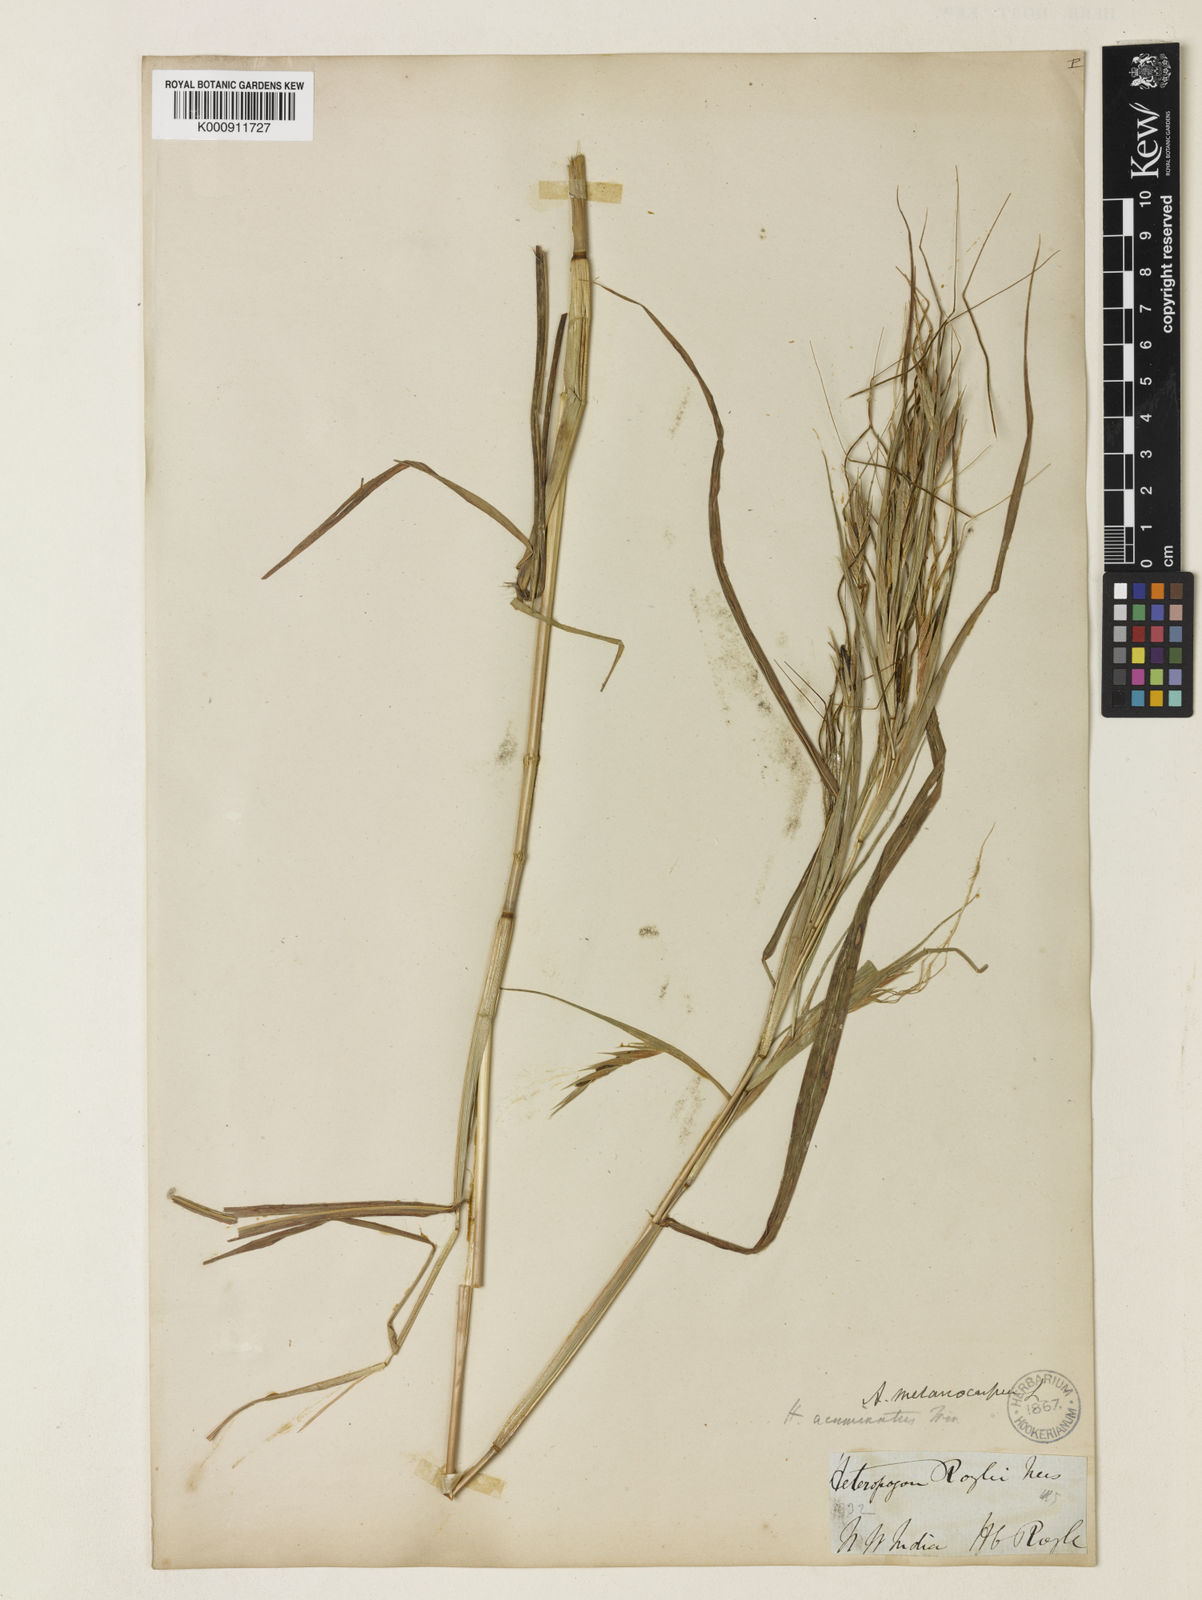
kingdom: Plantae
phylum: Tracheophyta
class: Liliopsida
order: Poales
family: Poaceae
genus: Heteropogon
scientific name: Heteropogon melanocarpus
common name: Sweet tanglehead
